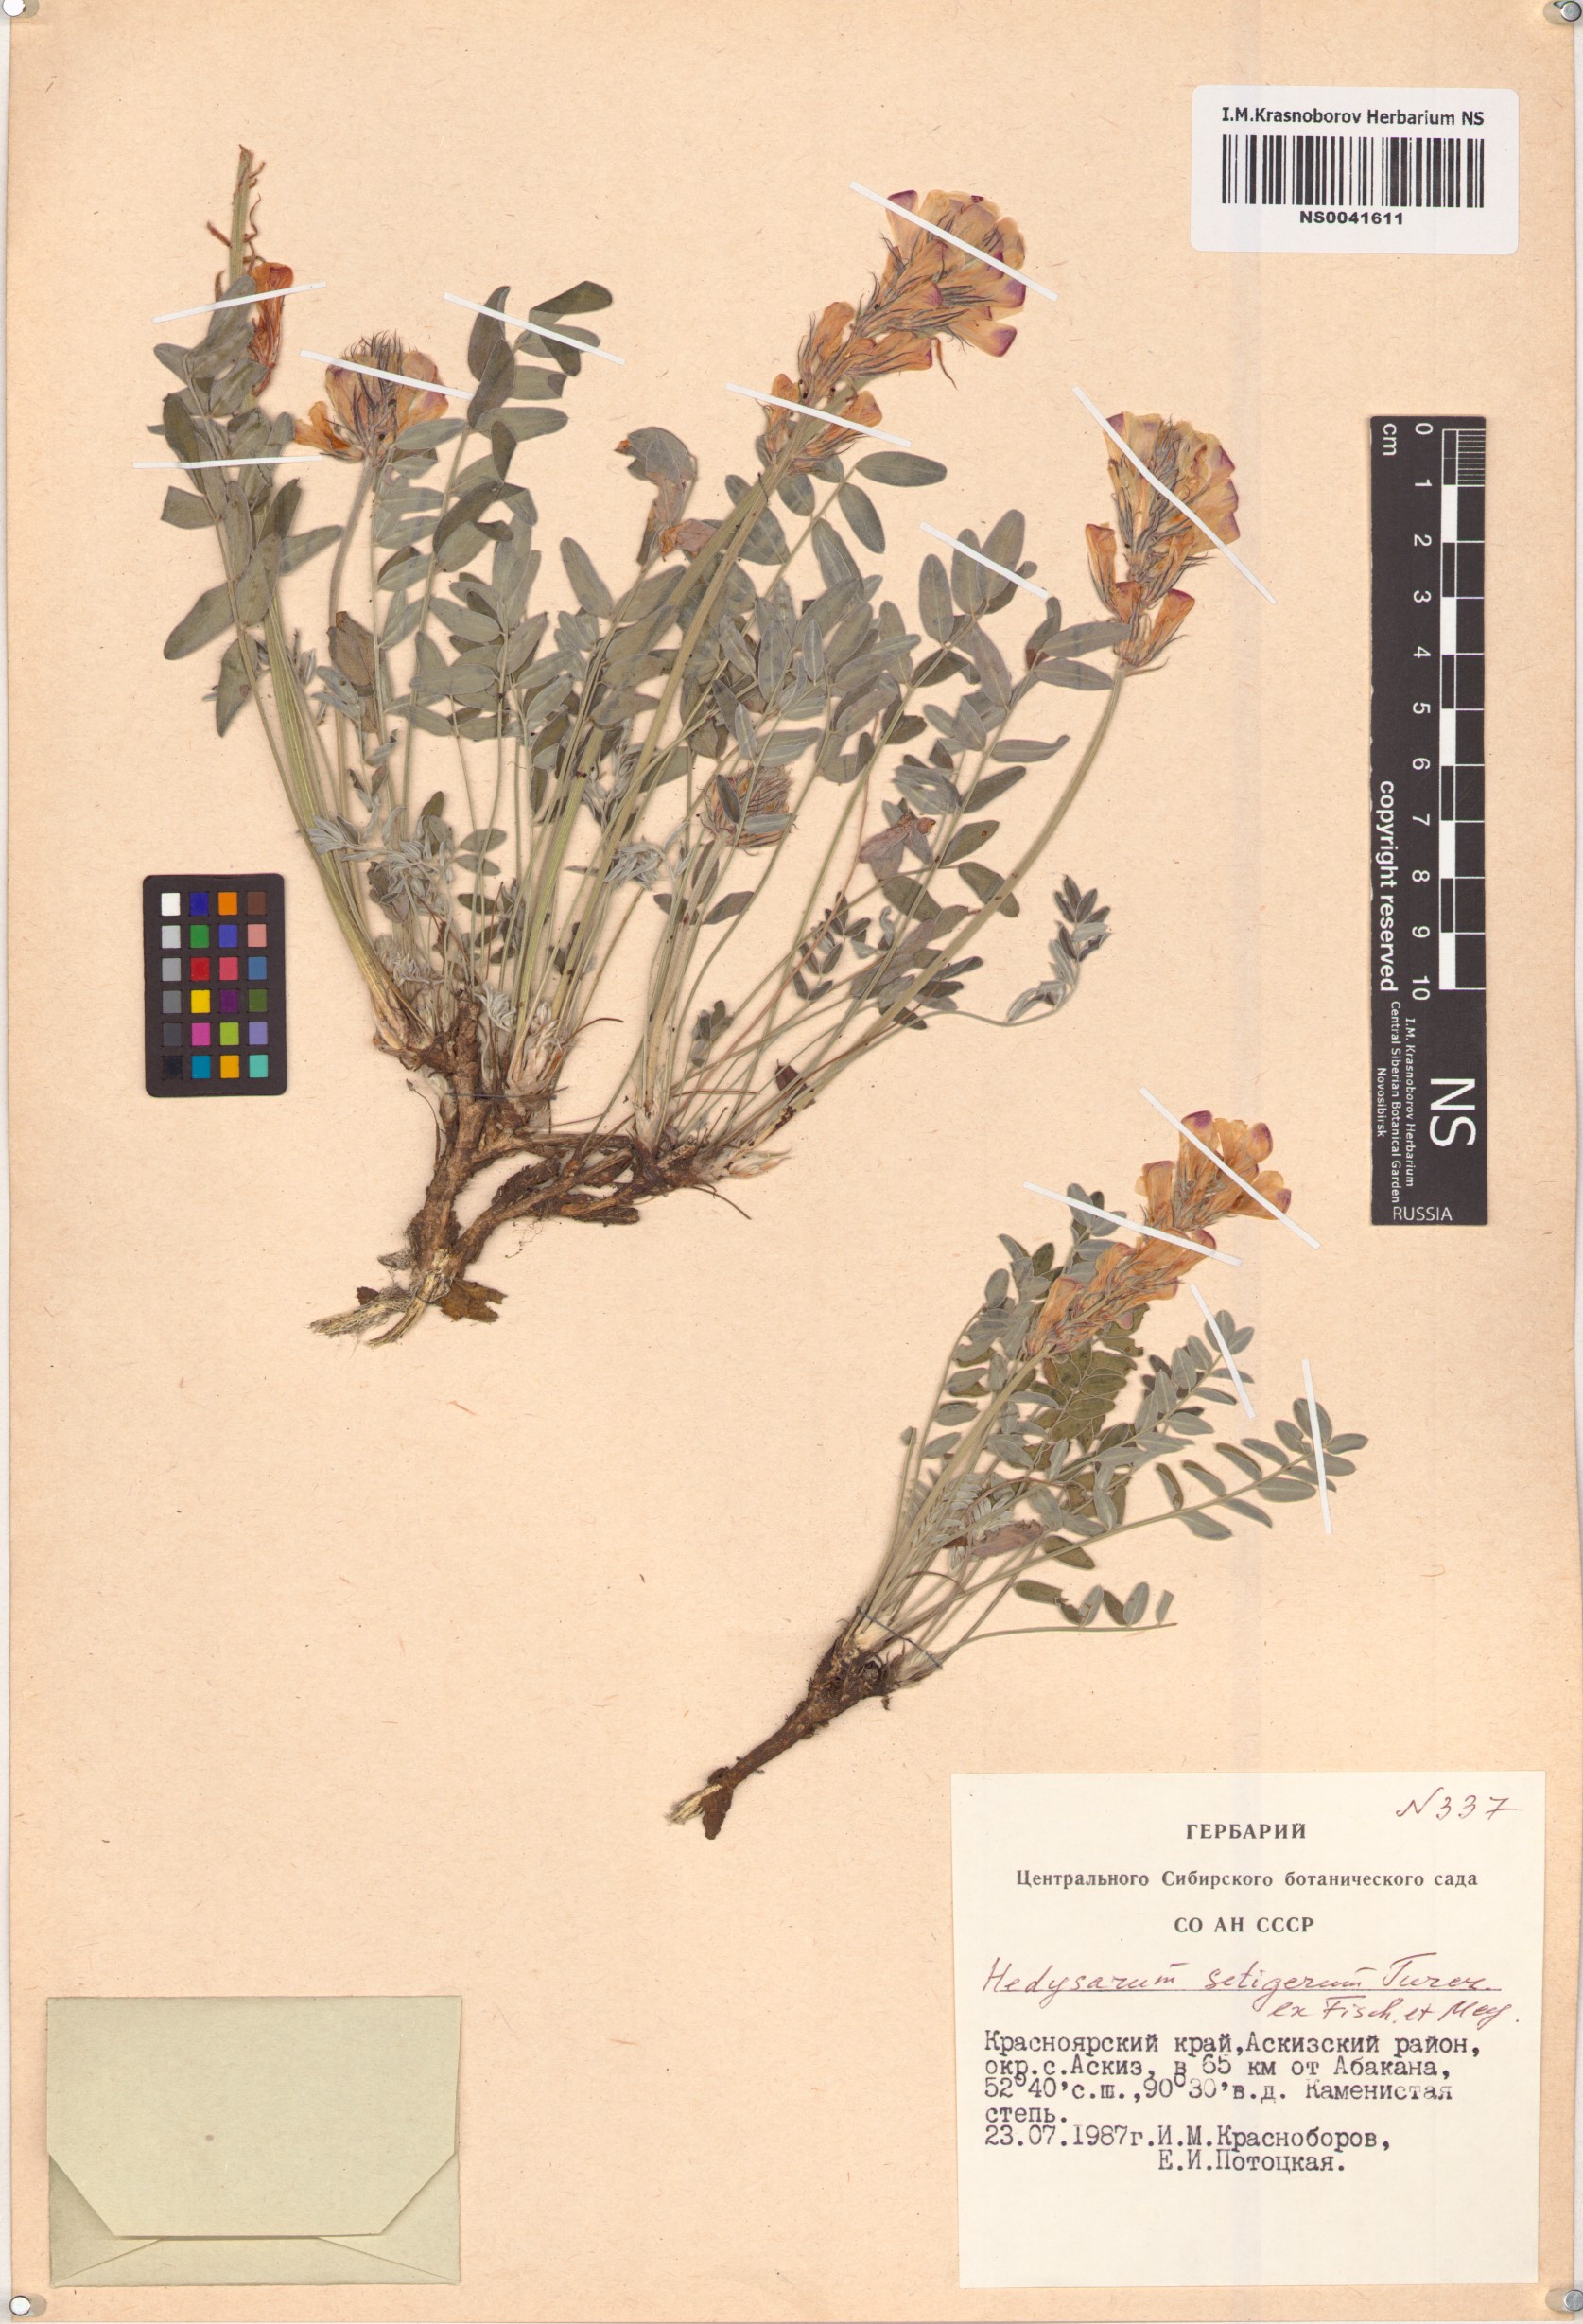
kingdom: Plantae
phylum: Tracheophyta
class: Magnoliopsida
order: Fabales
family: Fabaceae
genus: Hedysarum
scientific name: Hedysarum setigerum
